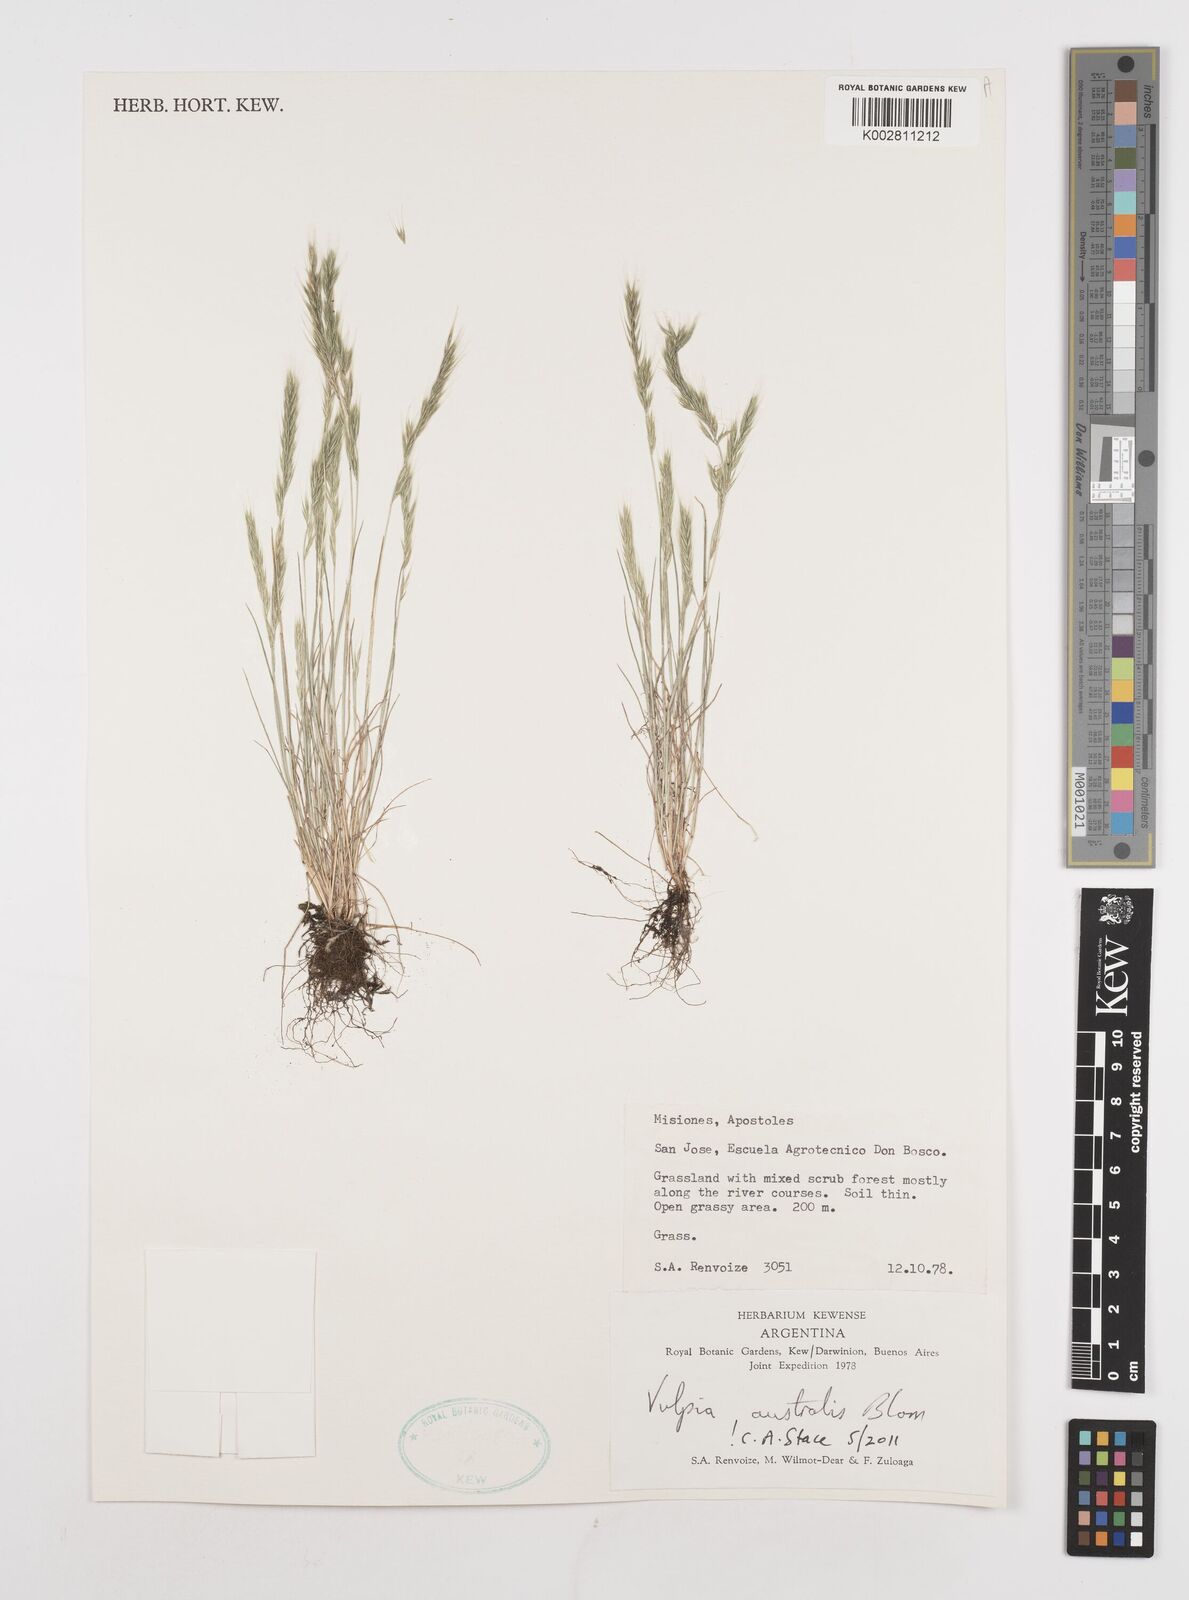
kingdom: Plantae
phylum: Tracheophyta
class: Liliopsida
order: Poales
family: Poaceae
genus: Festuca
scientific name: Festuca australis
